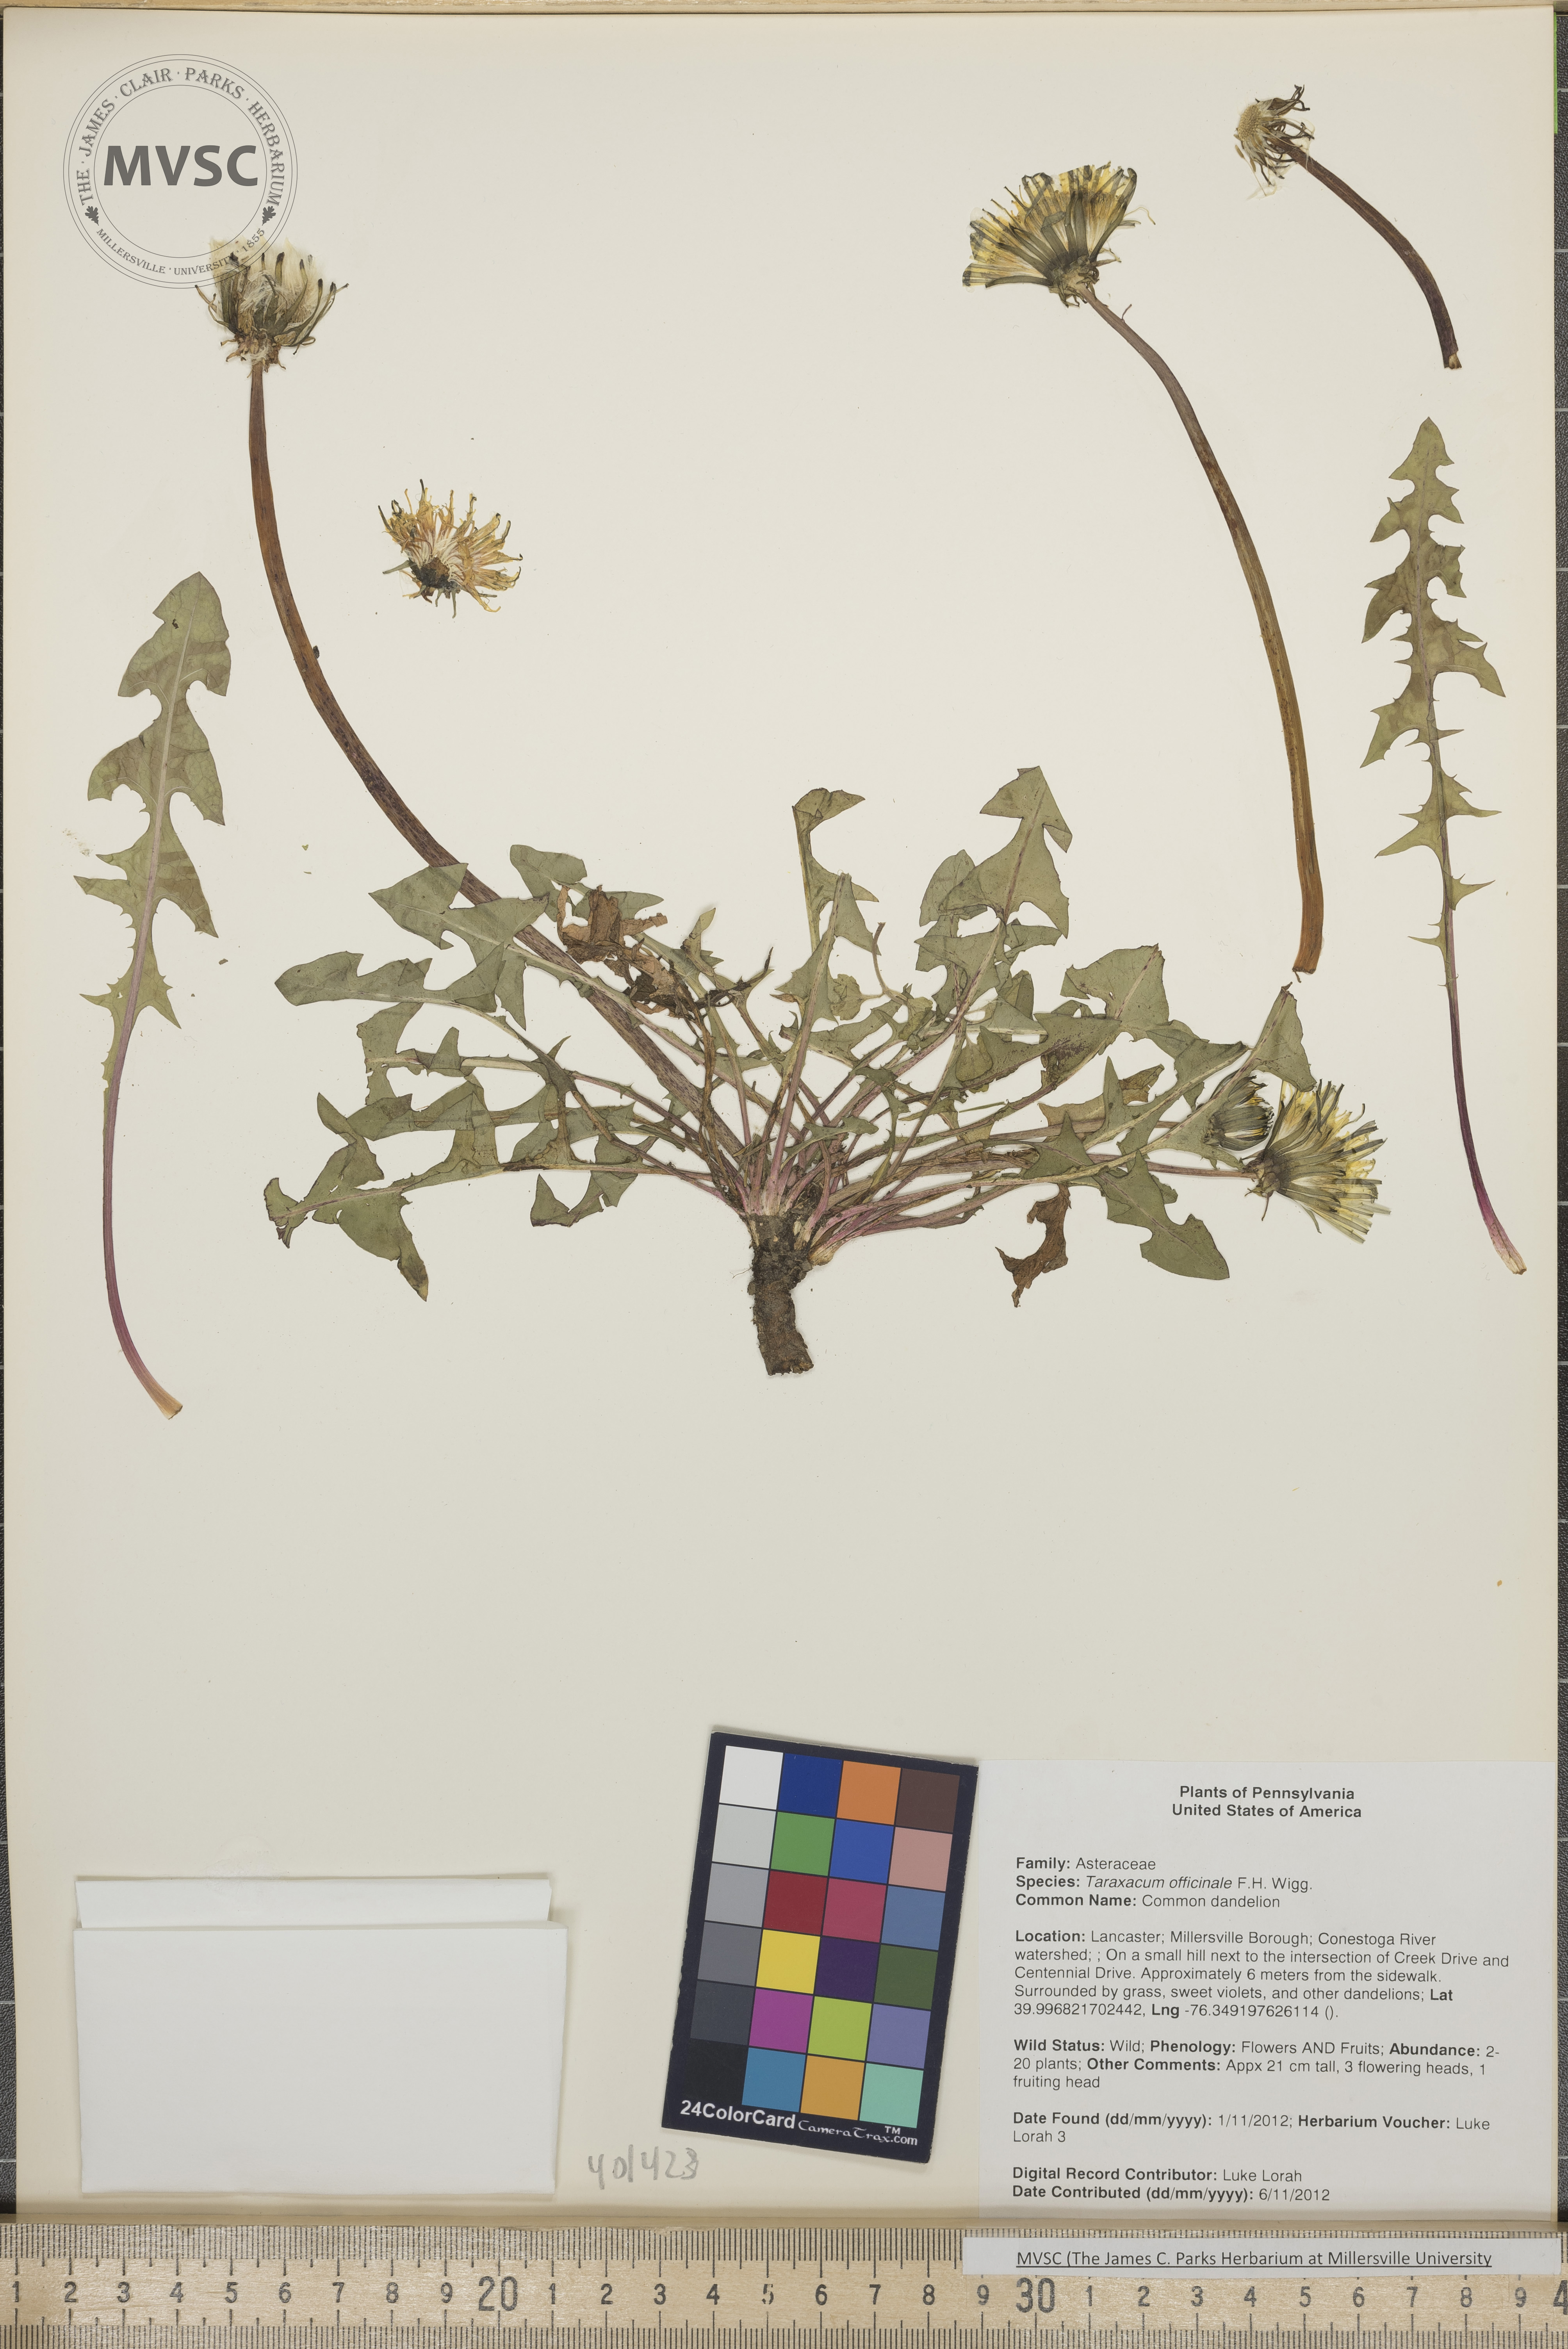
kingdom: Plantae
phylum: Tracheophyta
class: Magnoliopsida
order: Asterales
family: Asteraceae
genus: Taraxacum
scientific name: Taraxacum officinale
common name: Common dandelion
